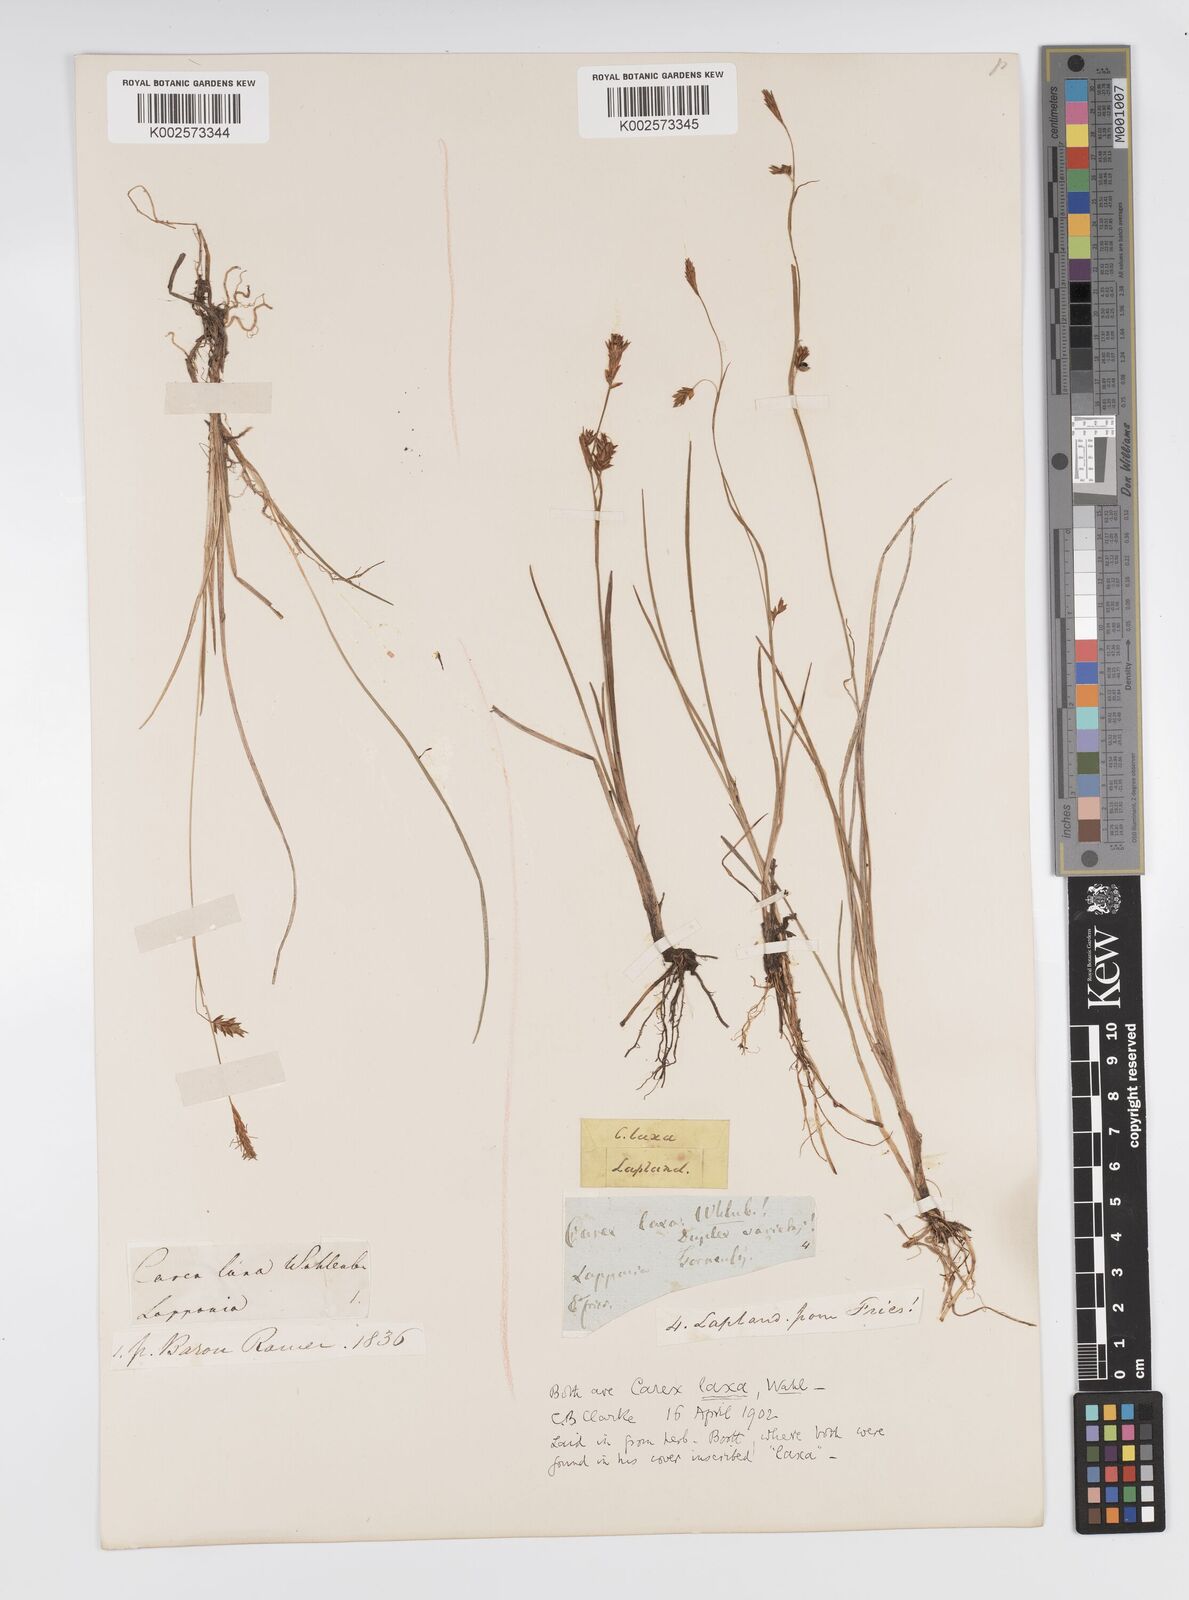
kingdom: Plantae
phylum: Tracheophyta
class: Liliopsida
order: Poales
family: Cyperaceae
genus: Carex
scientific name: Carex laxa
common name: Weak sedge
